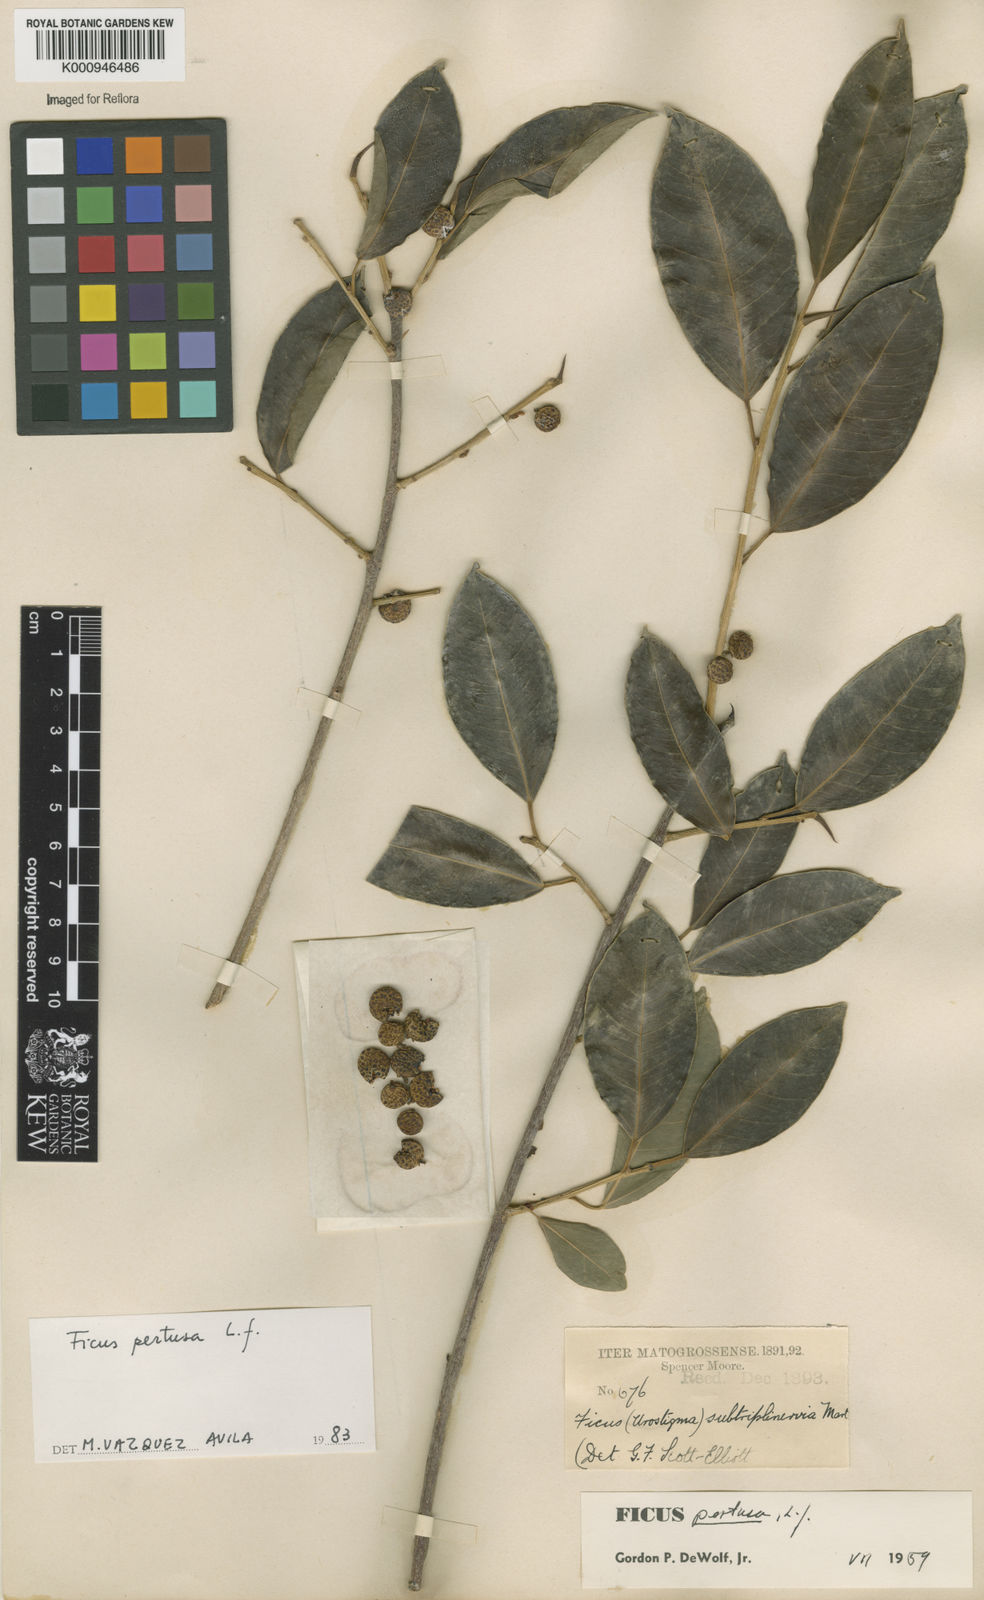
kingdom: Plantae
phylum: Tracheophyta
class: Magnoliopsida
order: Rosales
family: Moraceae
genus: Ficus
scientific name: Ficus pertusa
